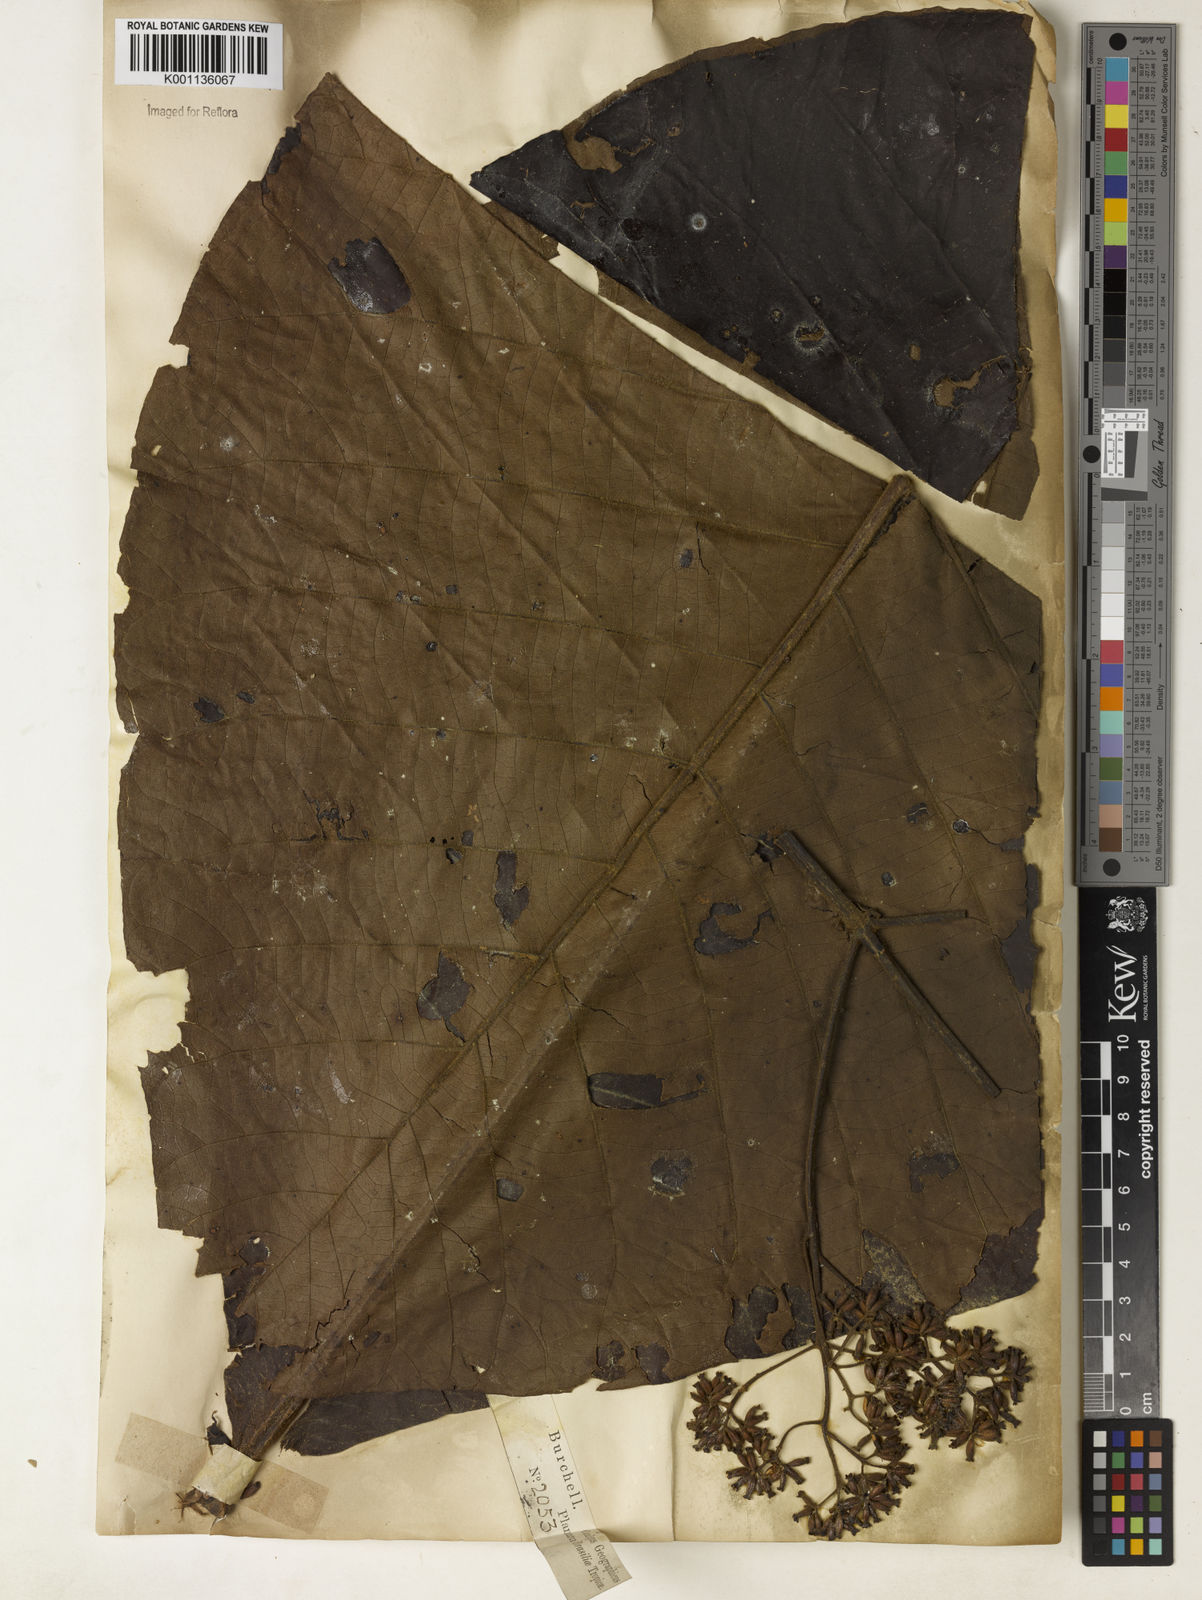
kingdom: Plantae
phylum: Tracheophyta
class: Magnoliopsida
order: Gentianales
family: Rubiaceae
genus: Bathysa
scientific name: Bathysa australis
